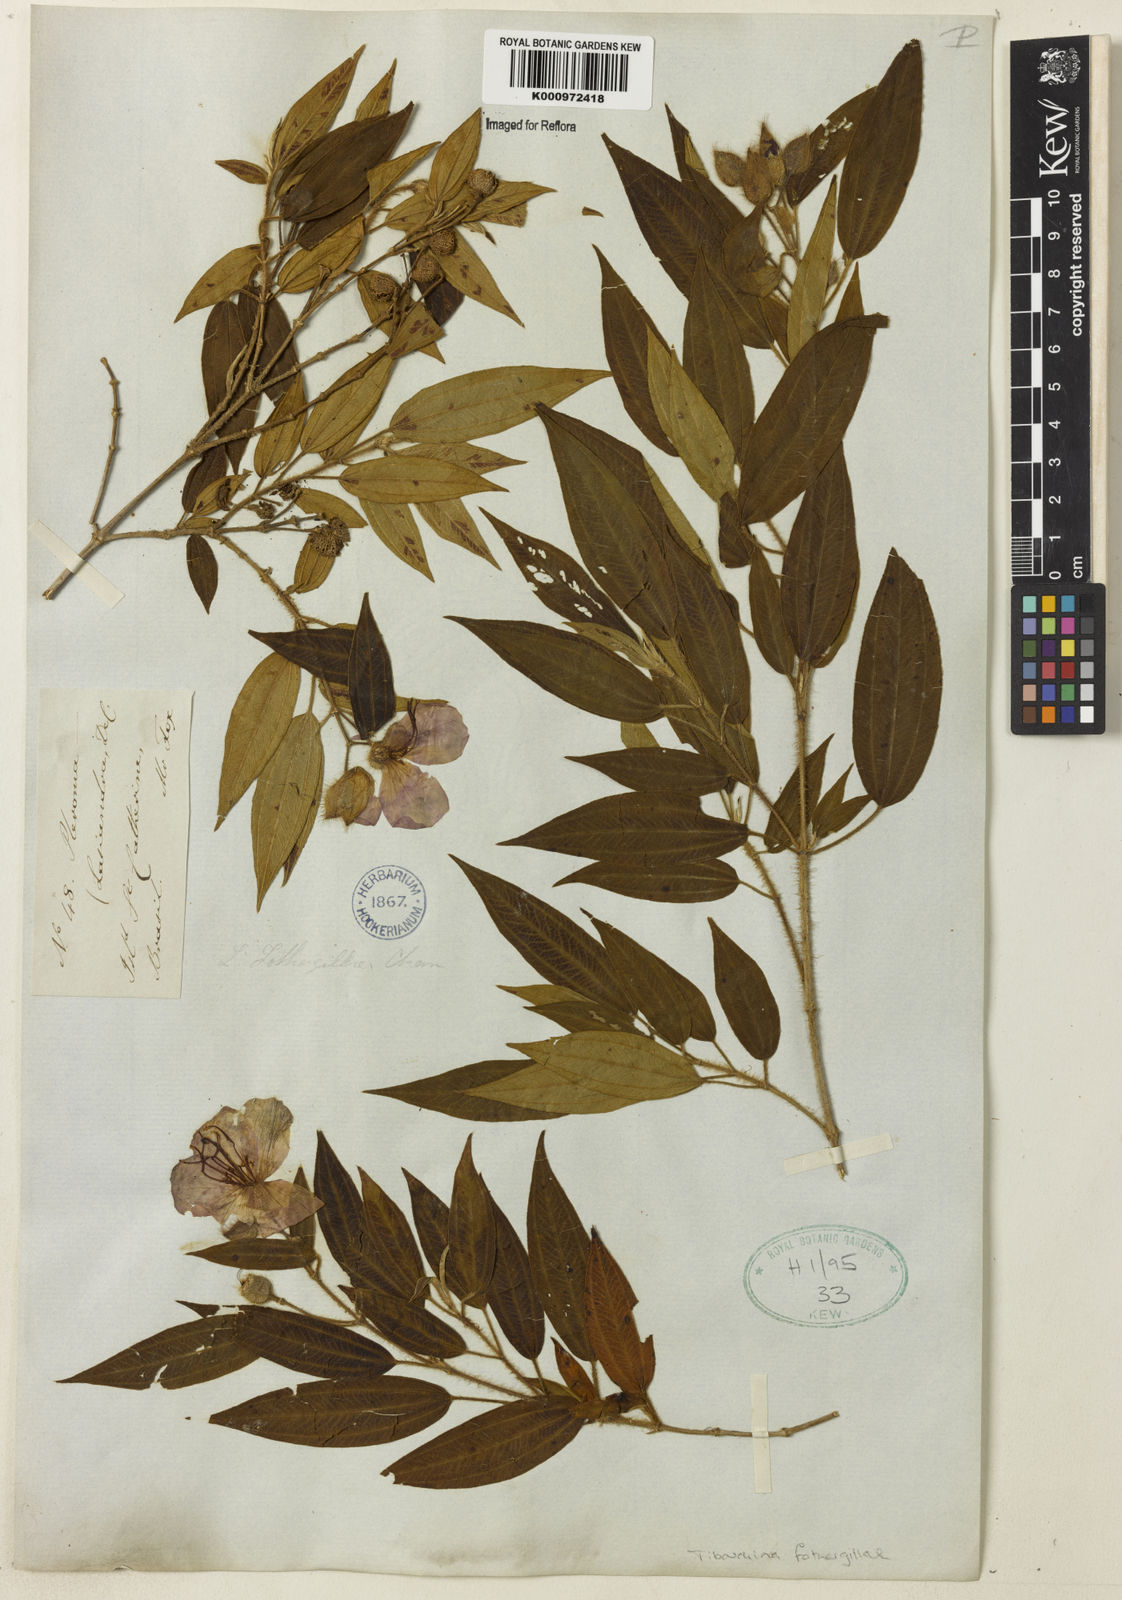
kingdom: Plantae
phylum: Tracheophyta
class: Magnoliopsida
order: Myrtales
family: Melastomataceae
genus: Pleroma
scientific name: Pleroma fothergillae
